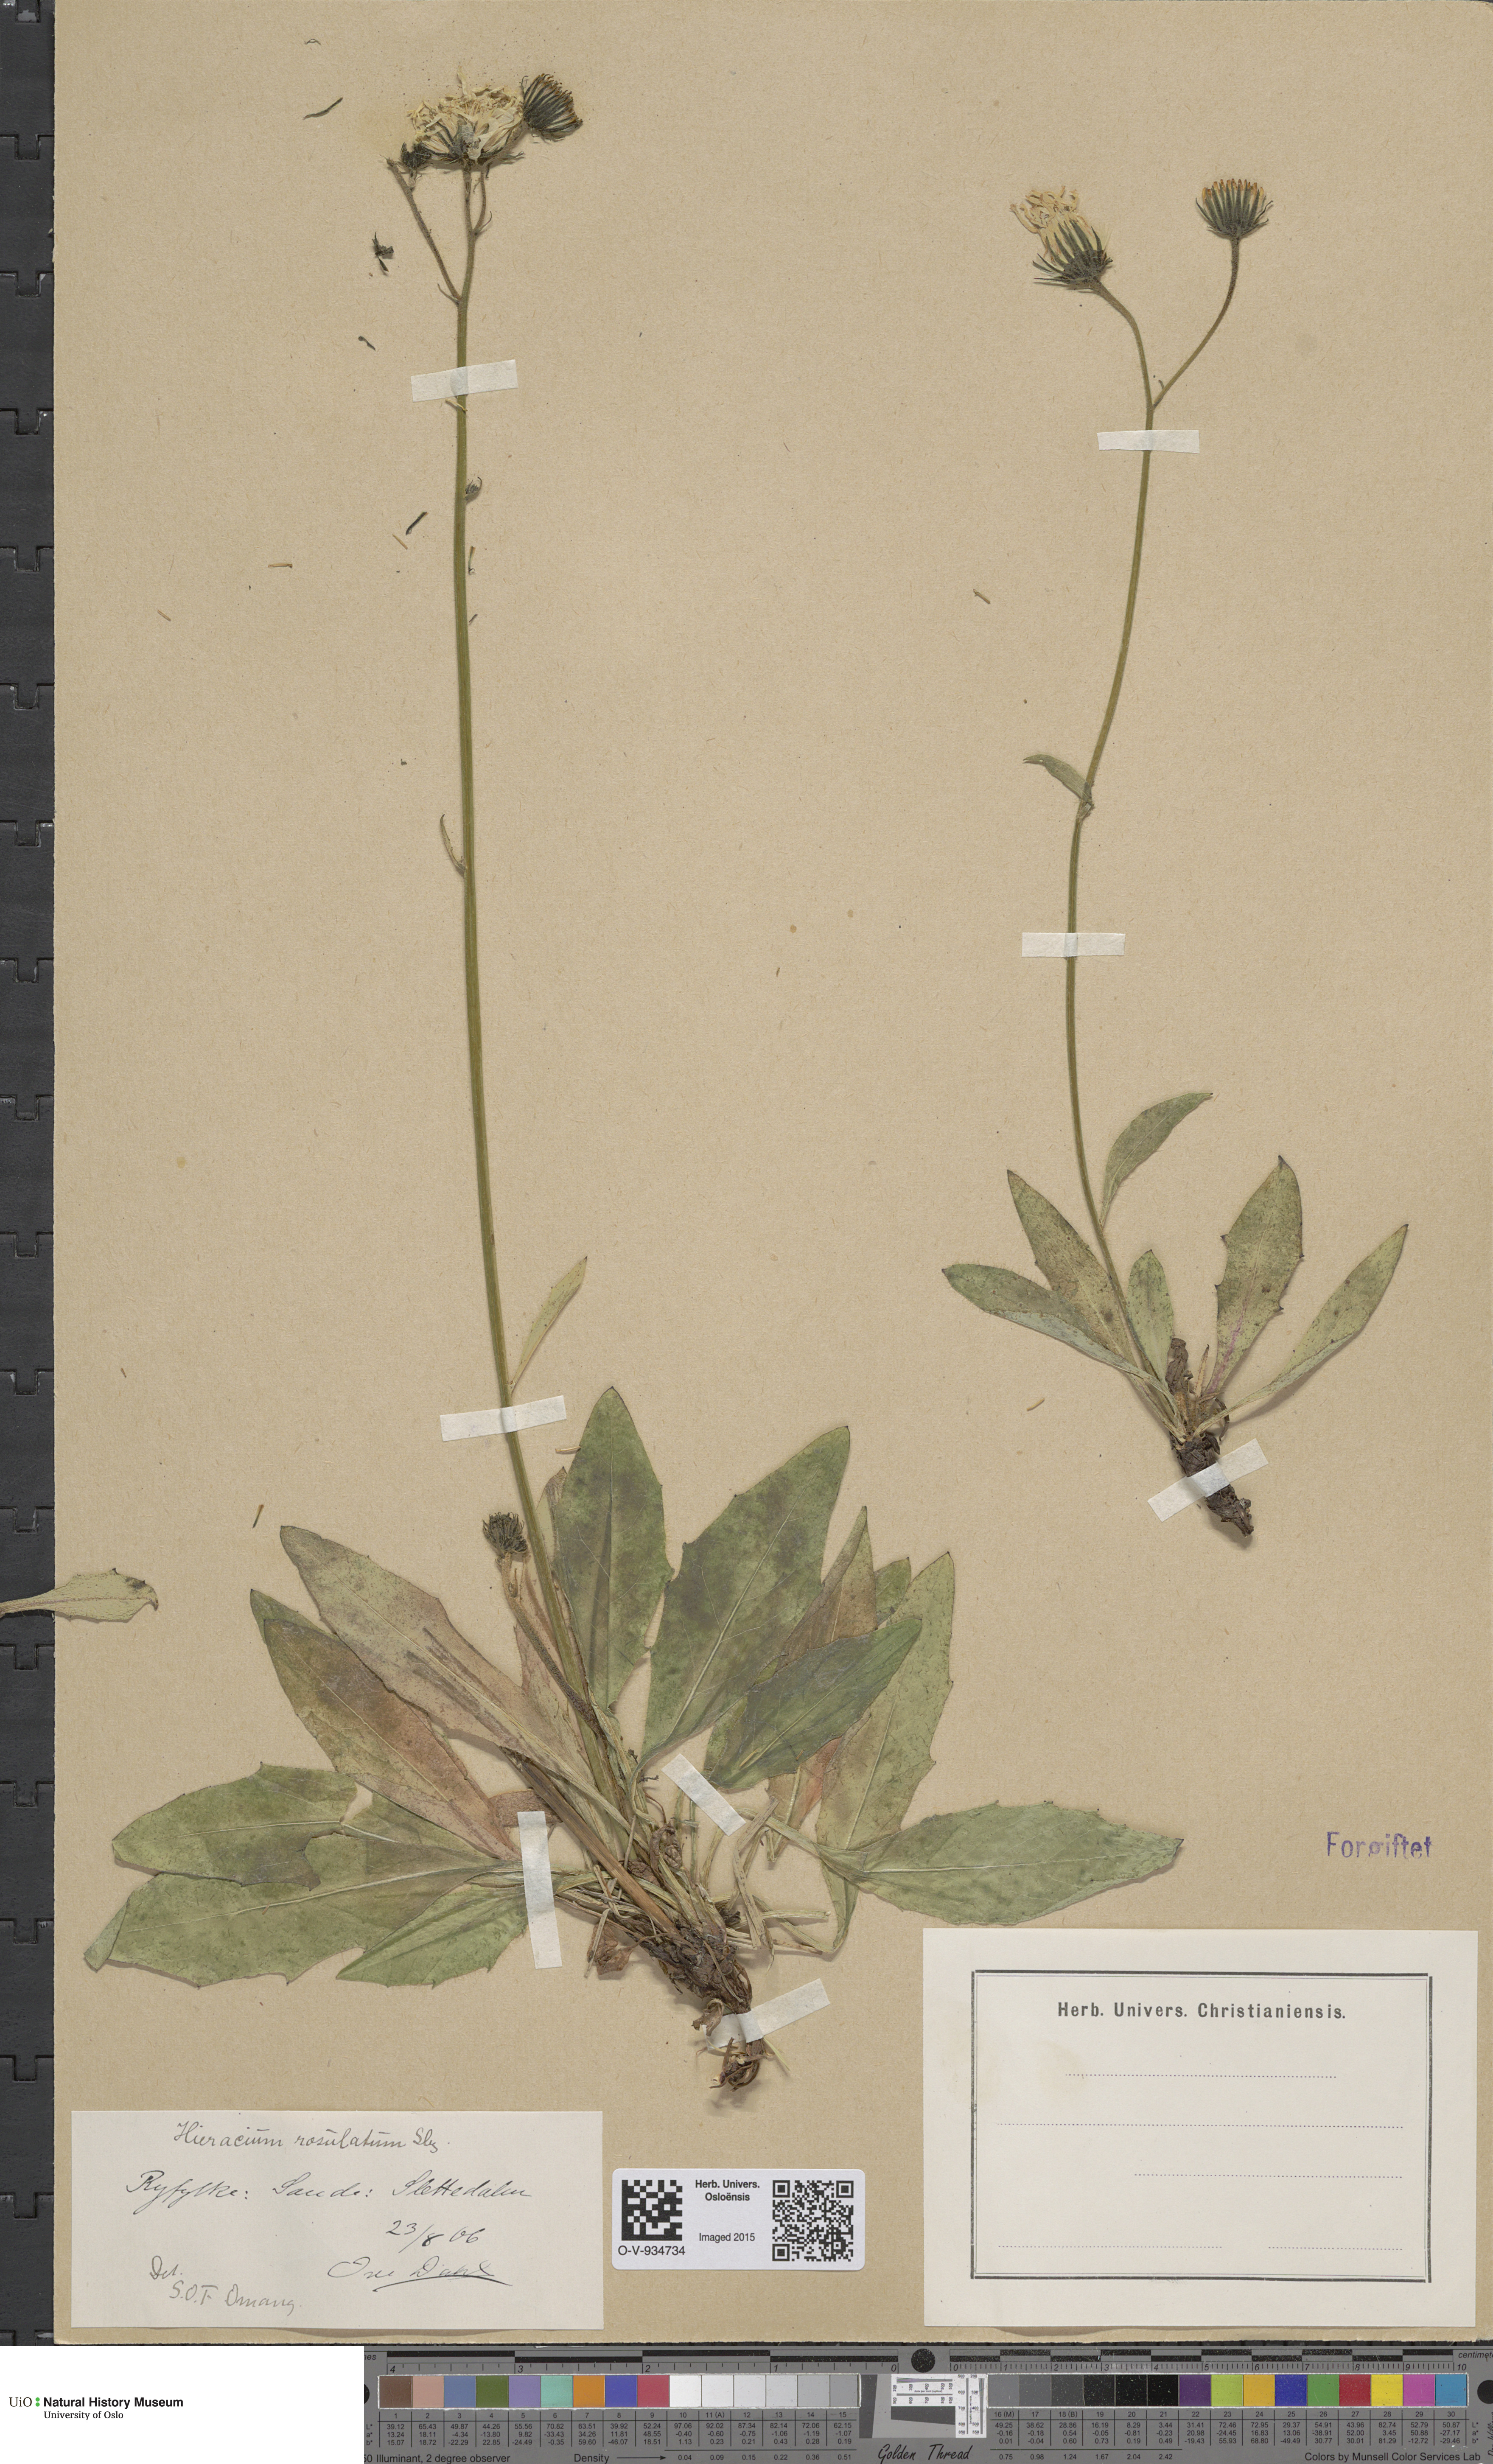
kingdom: Plantae
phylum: Tracheophyta
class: Magnoliopsida
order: Asterales
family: Asteraceae
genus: Hieracium
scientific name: Hieracium rosulatum
